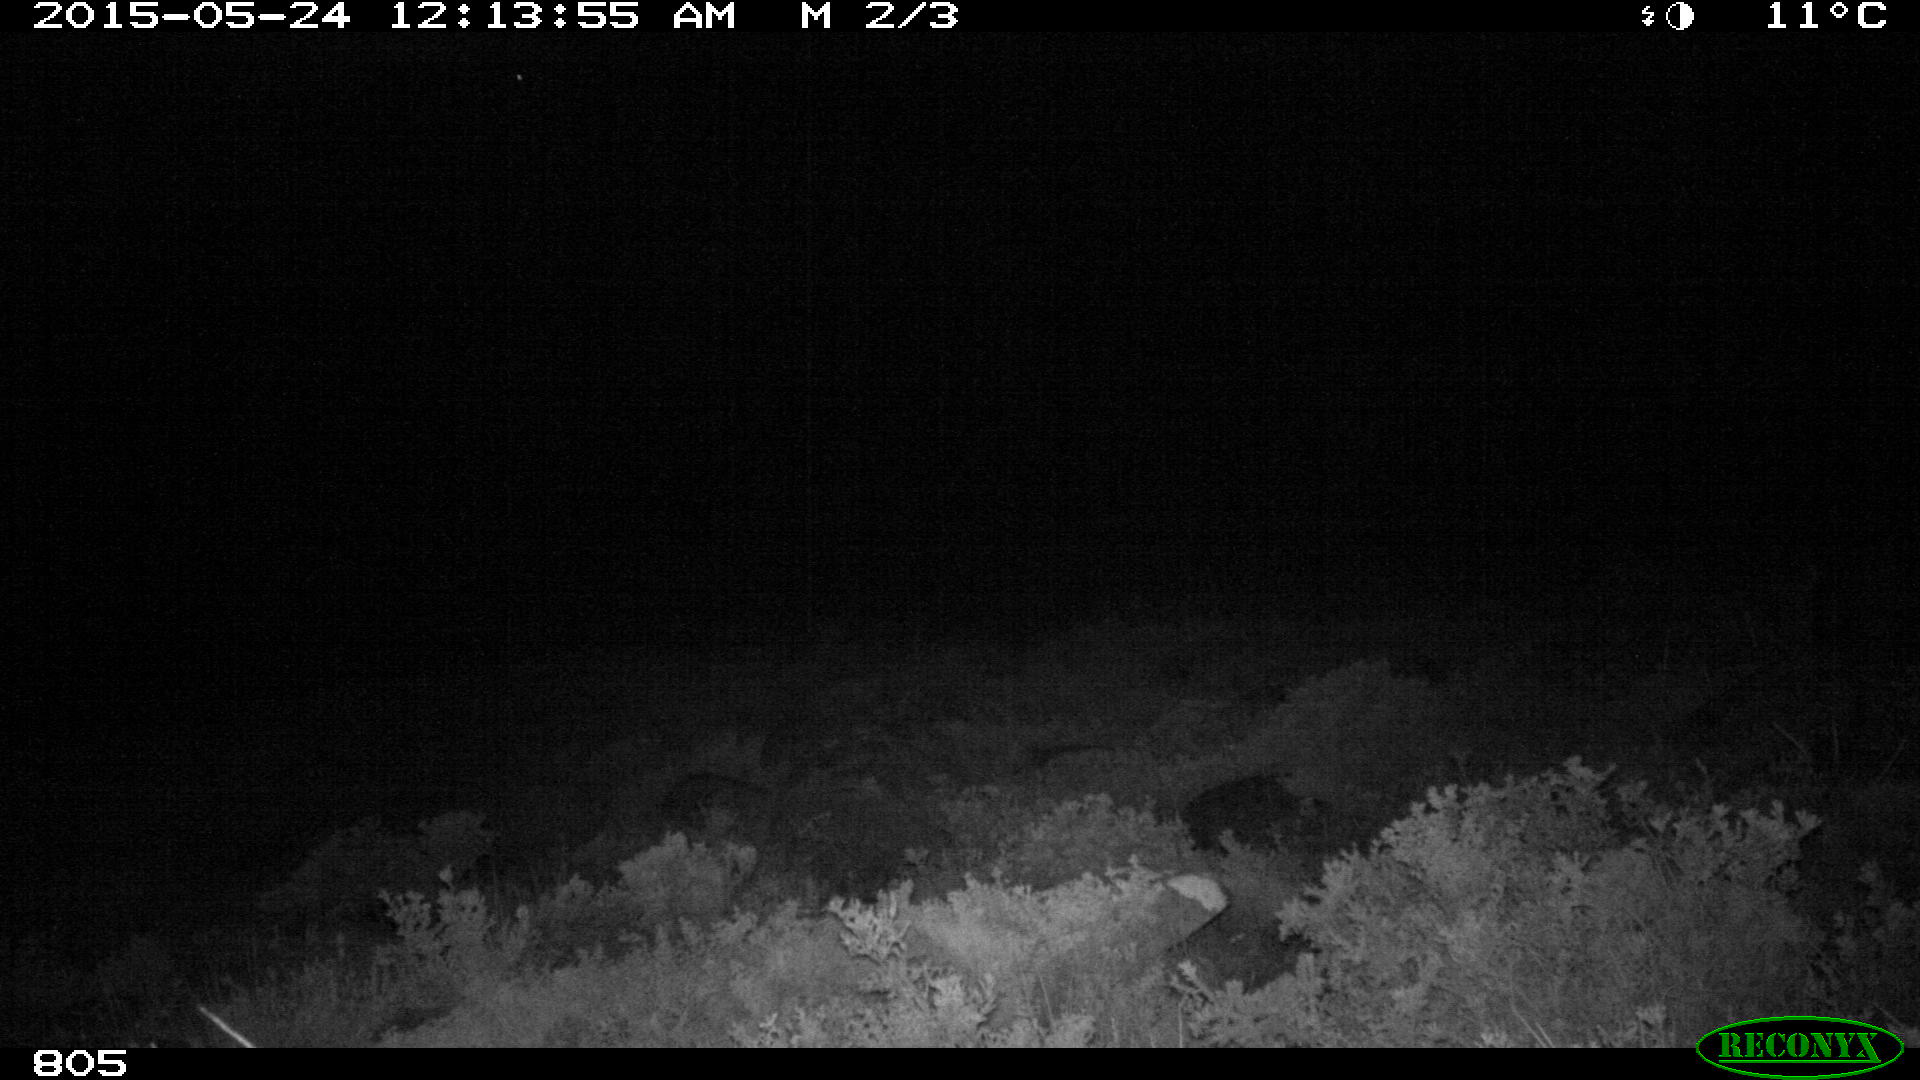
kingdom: Animalia
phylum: Chordata
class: Mammalia
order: Artiodactyla
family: Bovidae
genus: Bos
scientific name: Bos taurus
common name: Domesticated cattle
